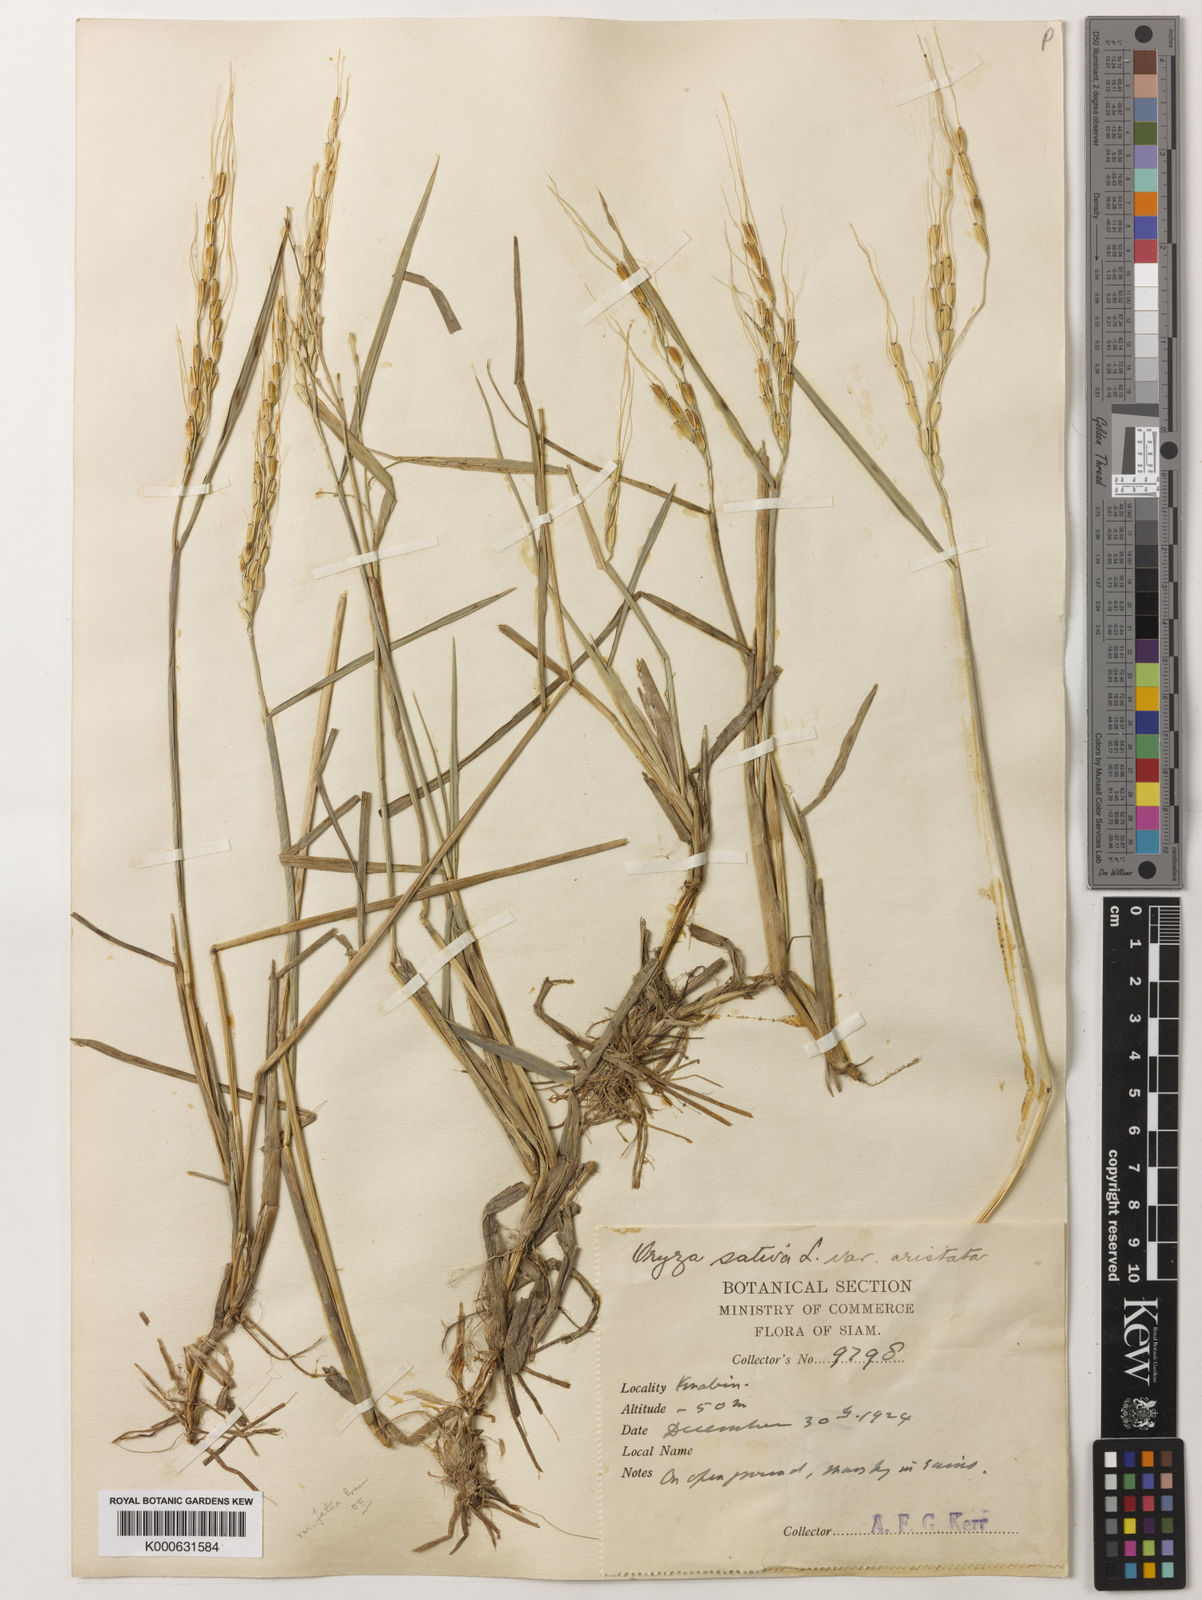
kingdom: Plantae
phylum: Tracheophyta
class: Liliopsida
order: Poales
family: Poaceae
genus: Oryza
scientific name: Oryza rufipogon
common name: Red rice
